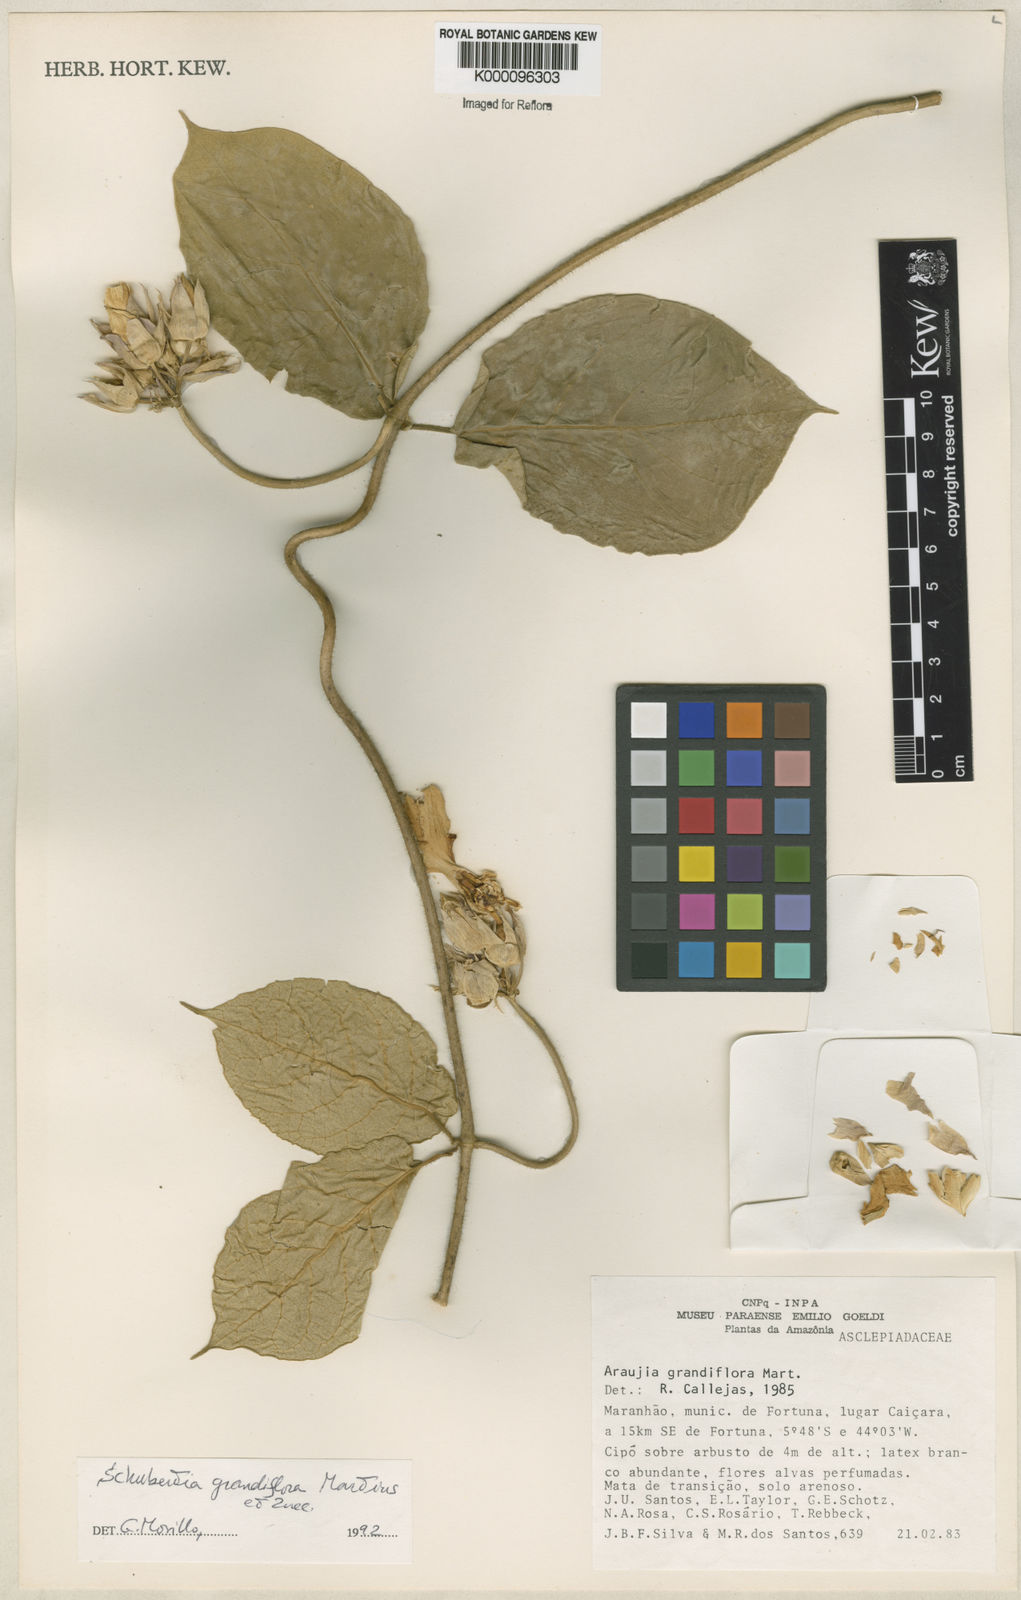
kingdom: Plantae
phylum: Tracheophyta
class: Magnoliopsida
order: Gentianales
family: Apocynaceae
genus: Macroscepis
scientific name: Macroscepis grandiflora
